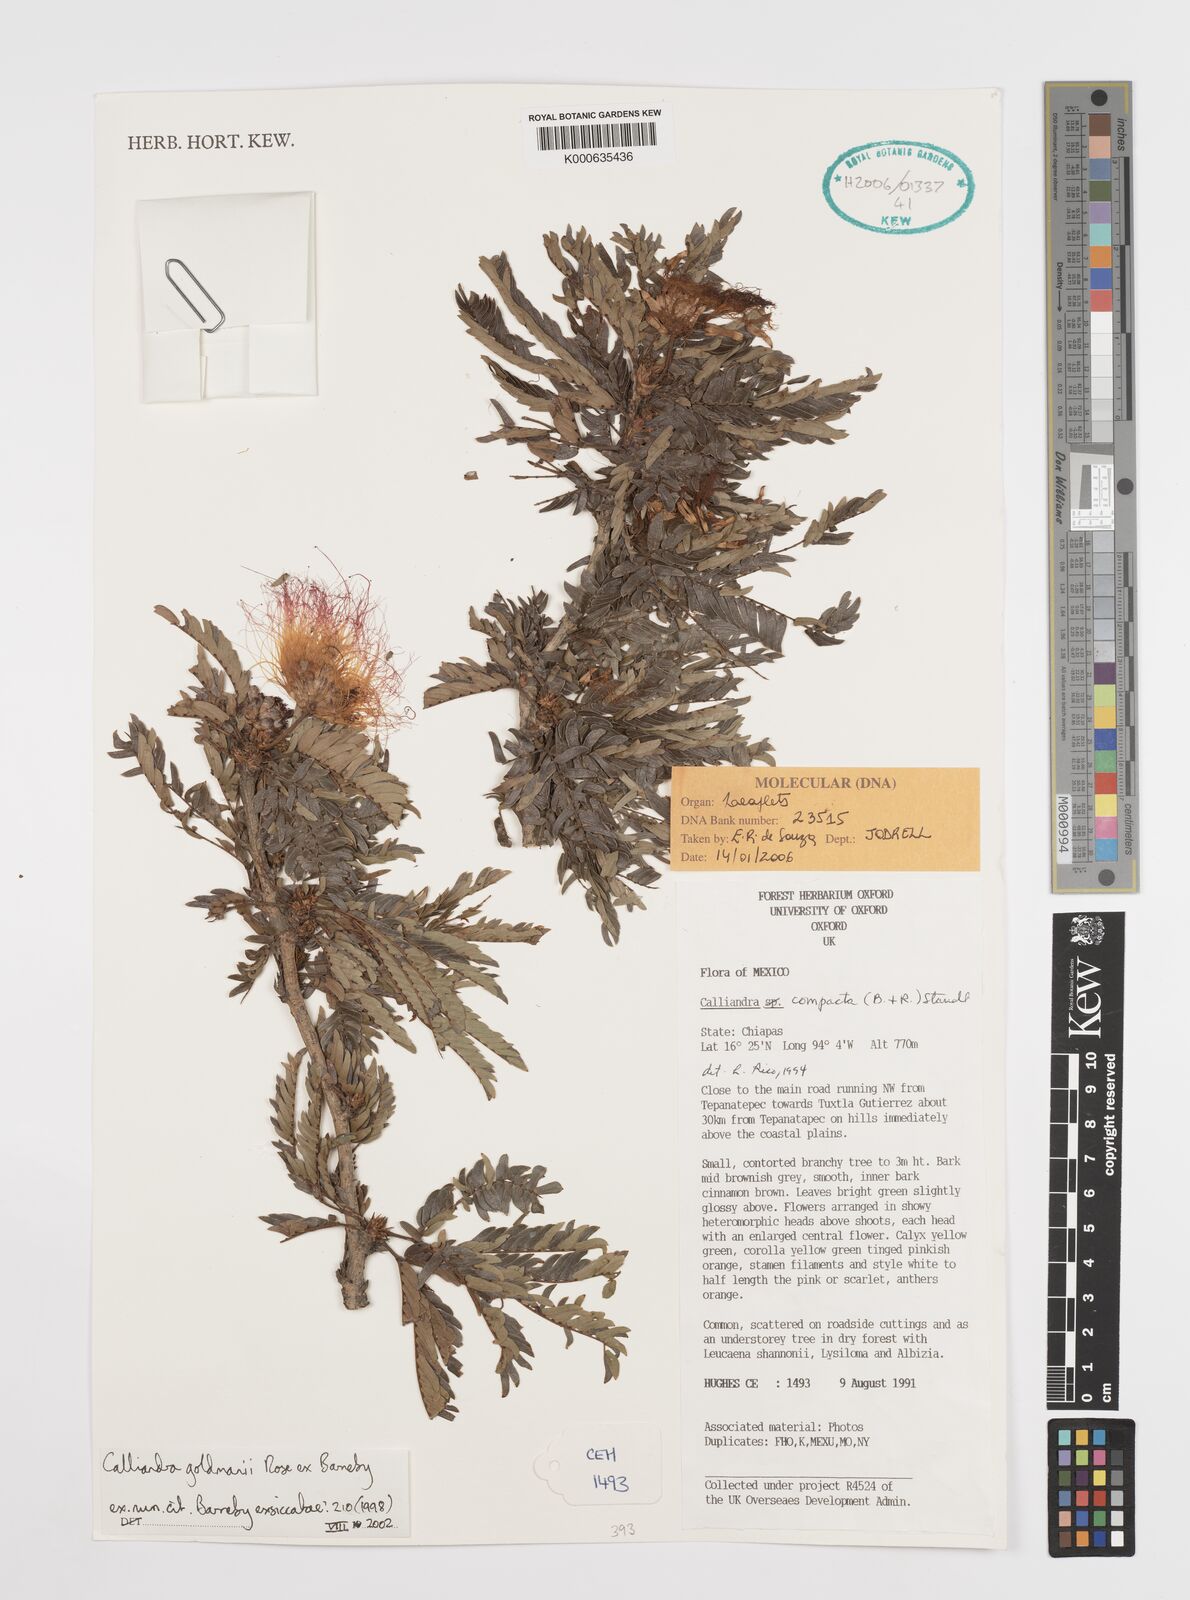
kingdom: Plantae
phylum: Tracheophyta
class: Magnoliopsida
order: Fabales
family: Fabaceae
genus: Calliandra
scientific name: Calliandra rubescens
